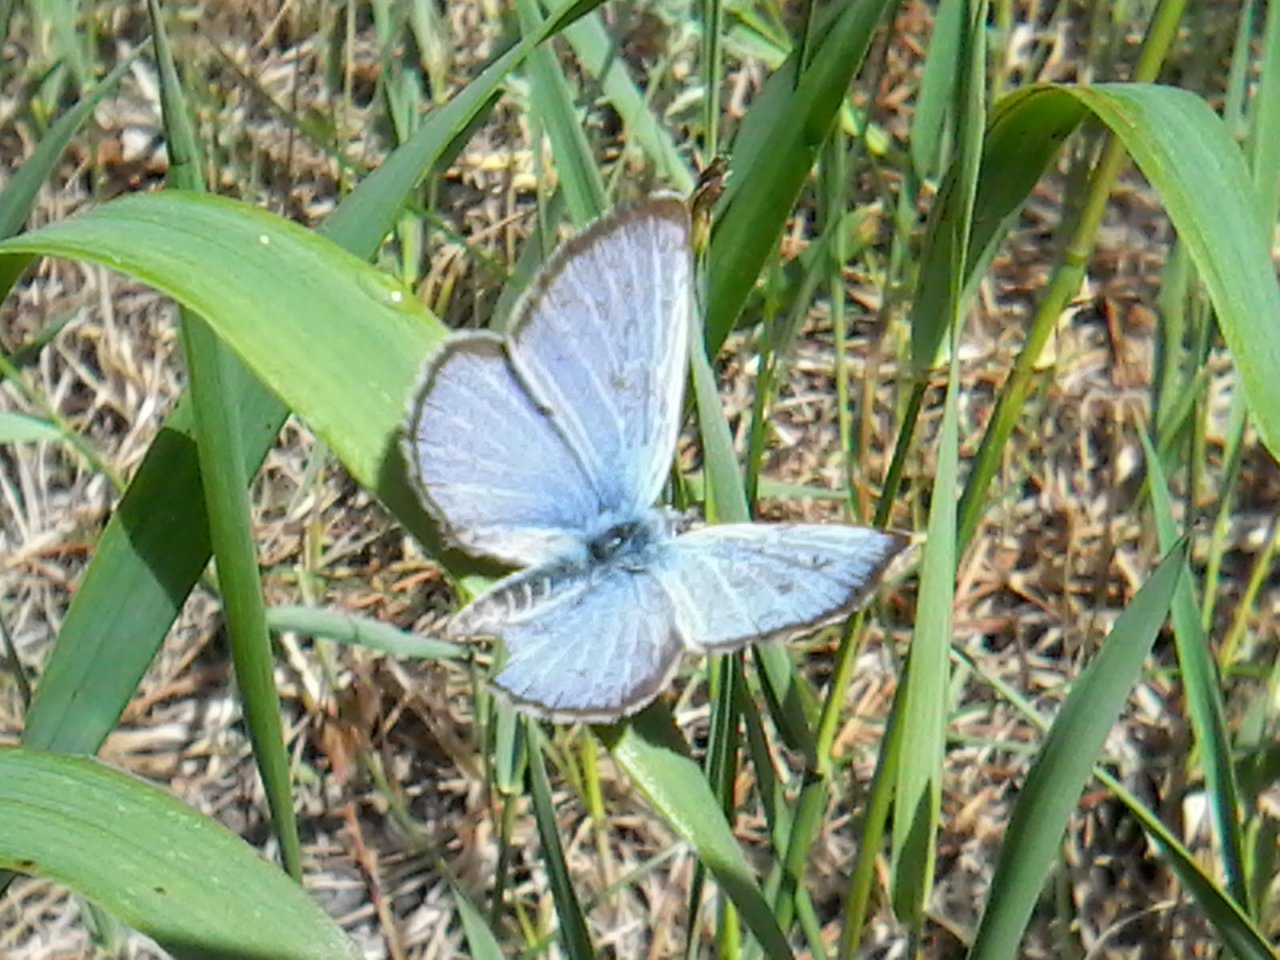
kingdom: Animalia
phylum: Arthropoda
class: Insecta
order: Lepidoptera
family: Lycaenidae
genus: Glaucopsyche
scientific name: Glaucopsyche lygdamus
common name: Silvery Blue
